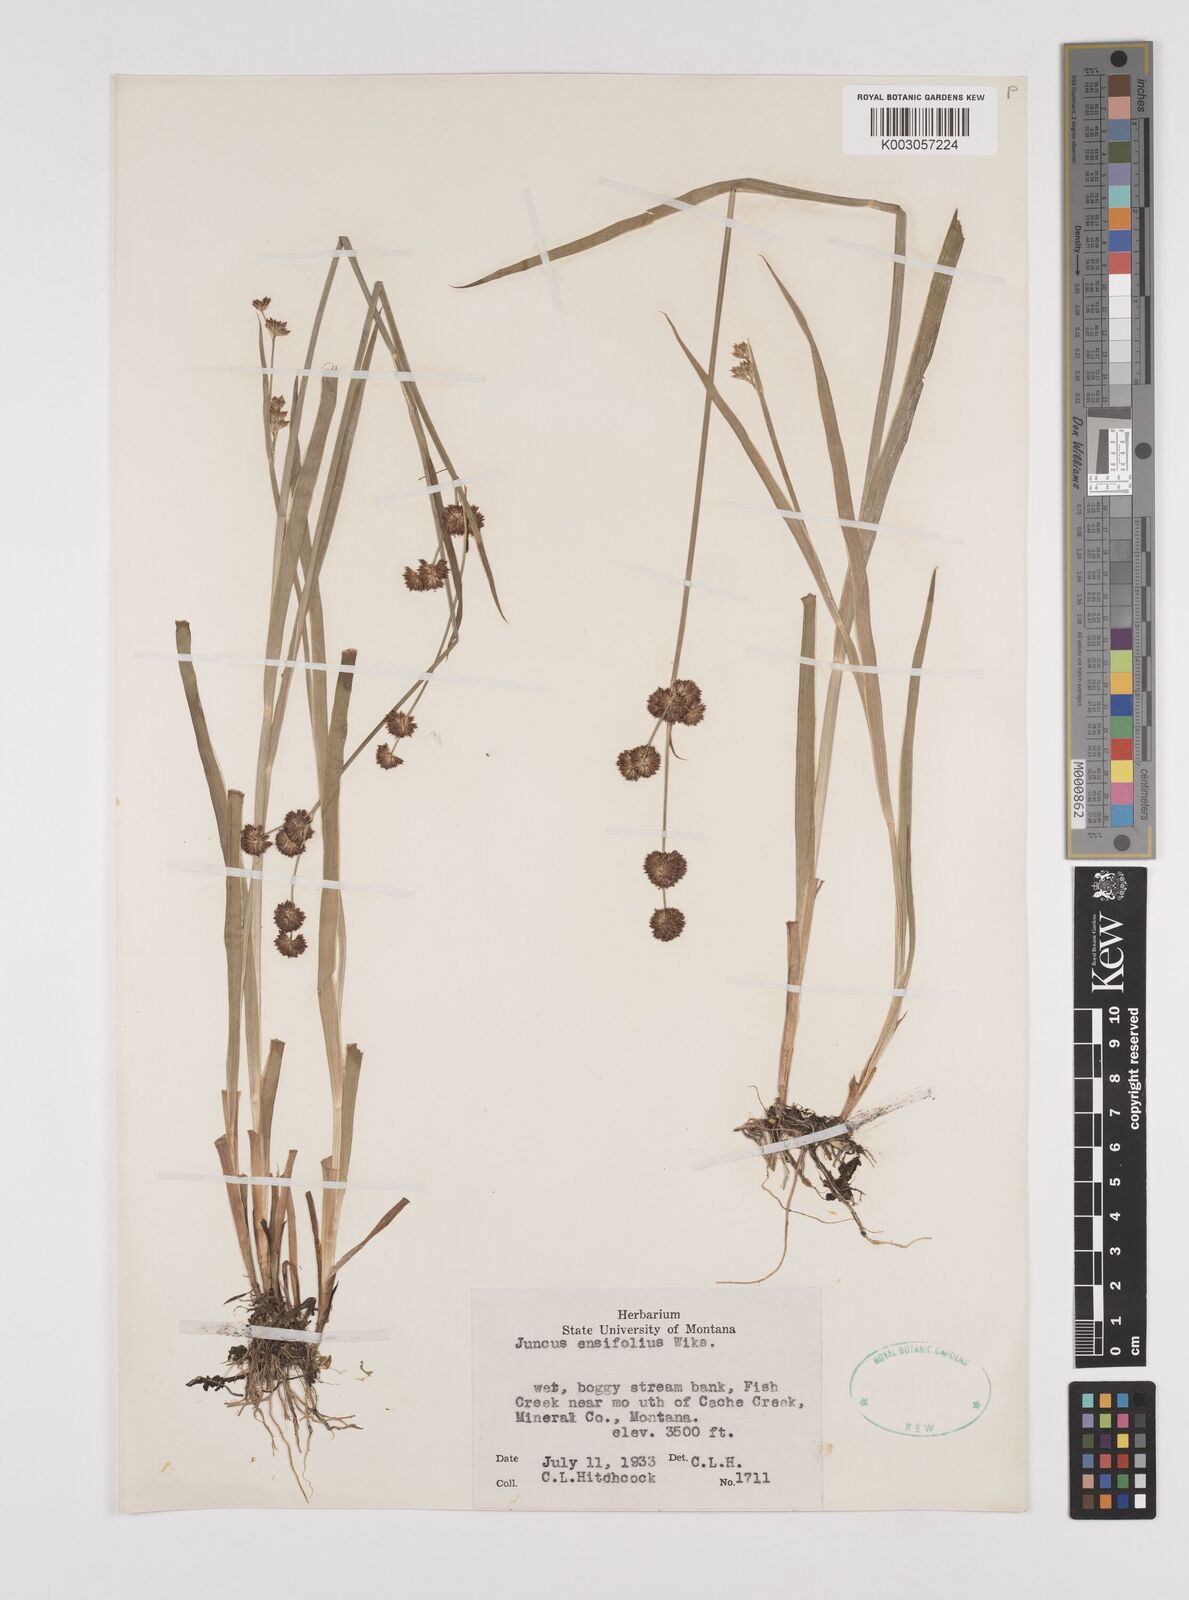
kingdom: Plantae
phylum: Tracheophyta
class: Liliopsida
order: Poales
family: Juncaceae
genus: Juncus
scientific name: Juncus ensifolius
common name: Sword-leaved rush
